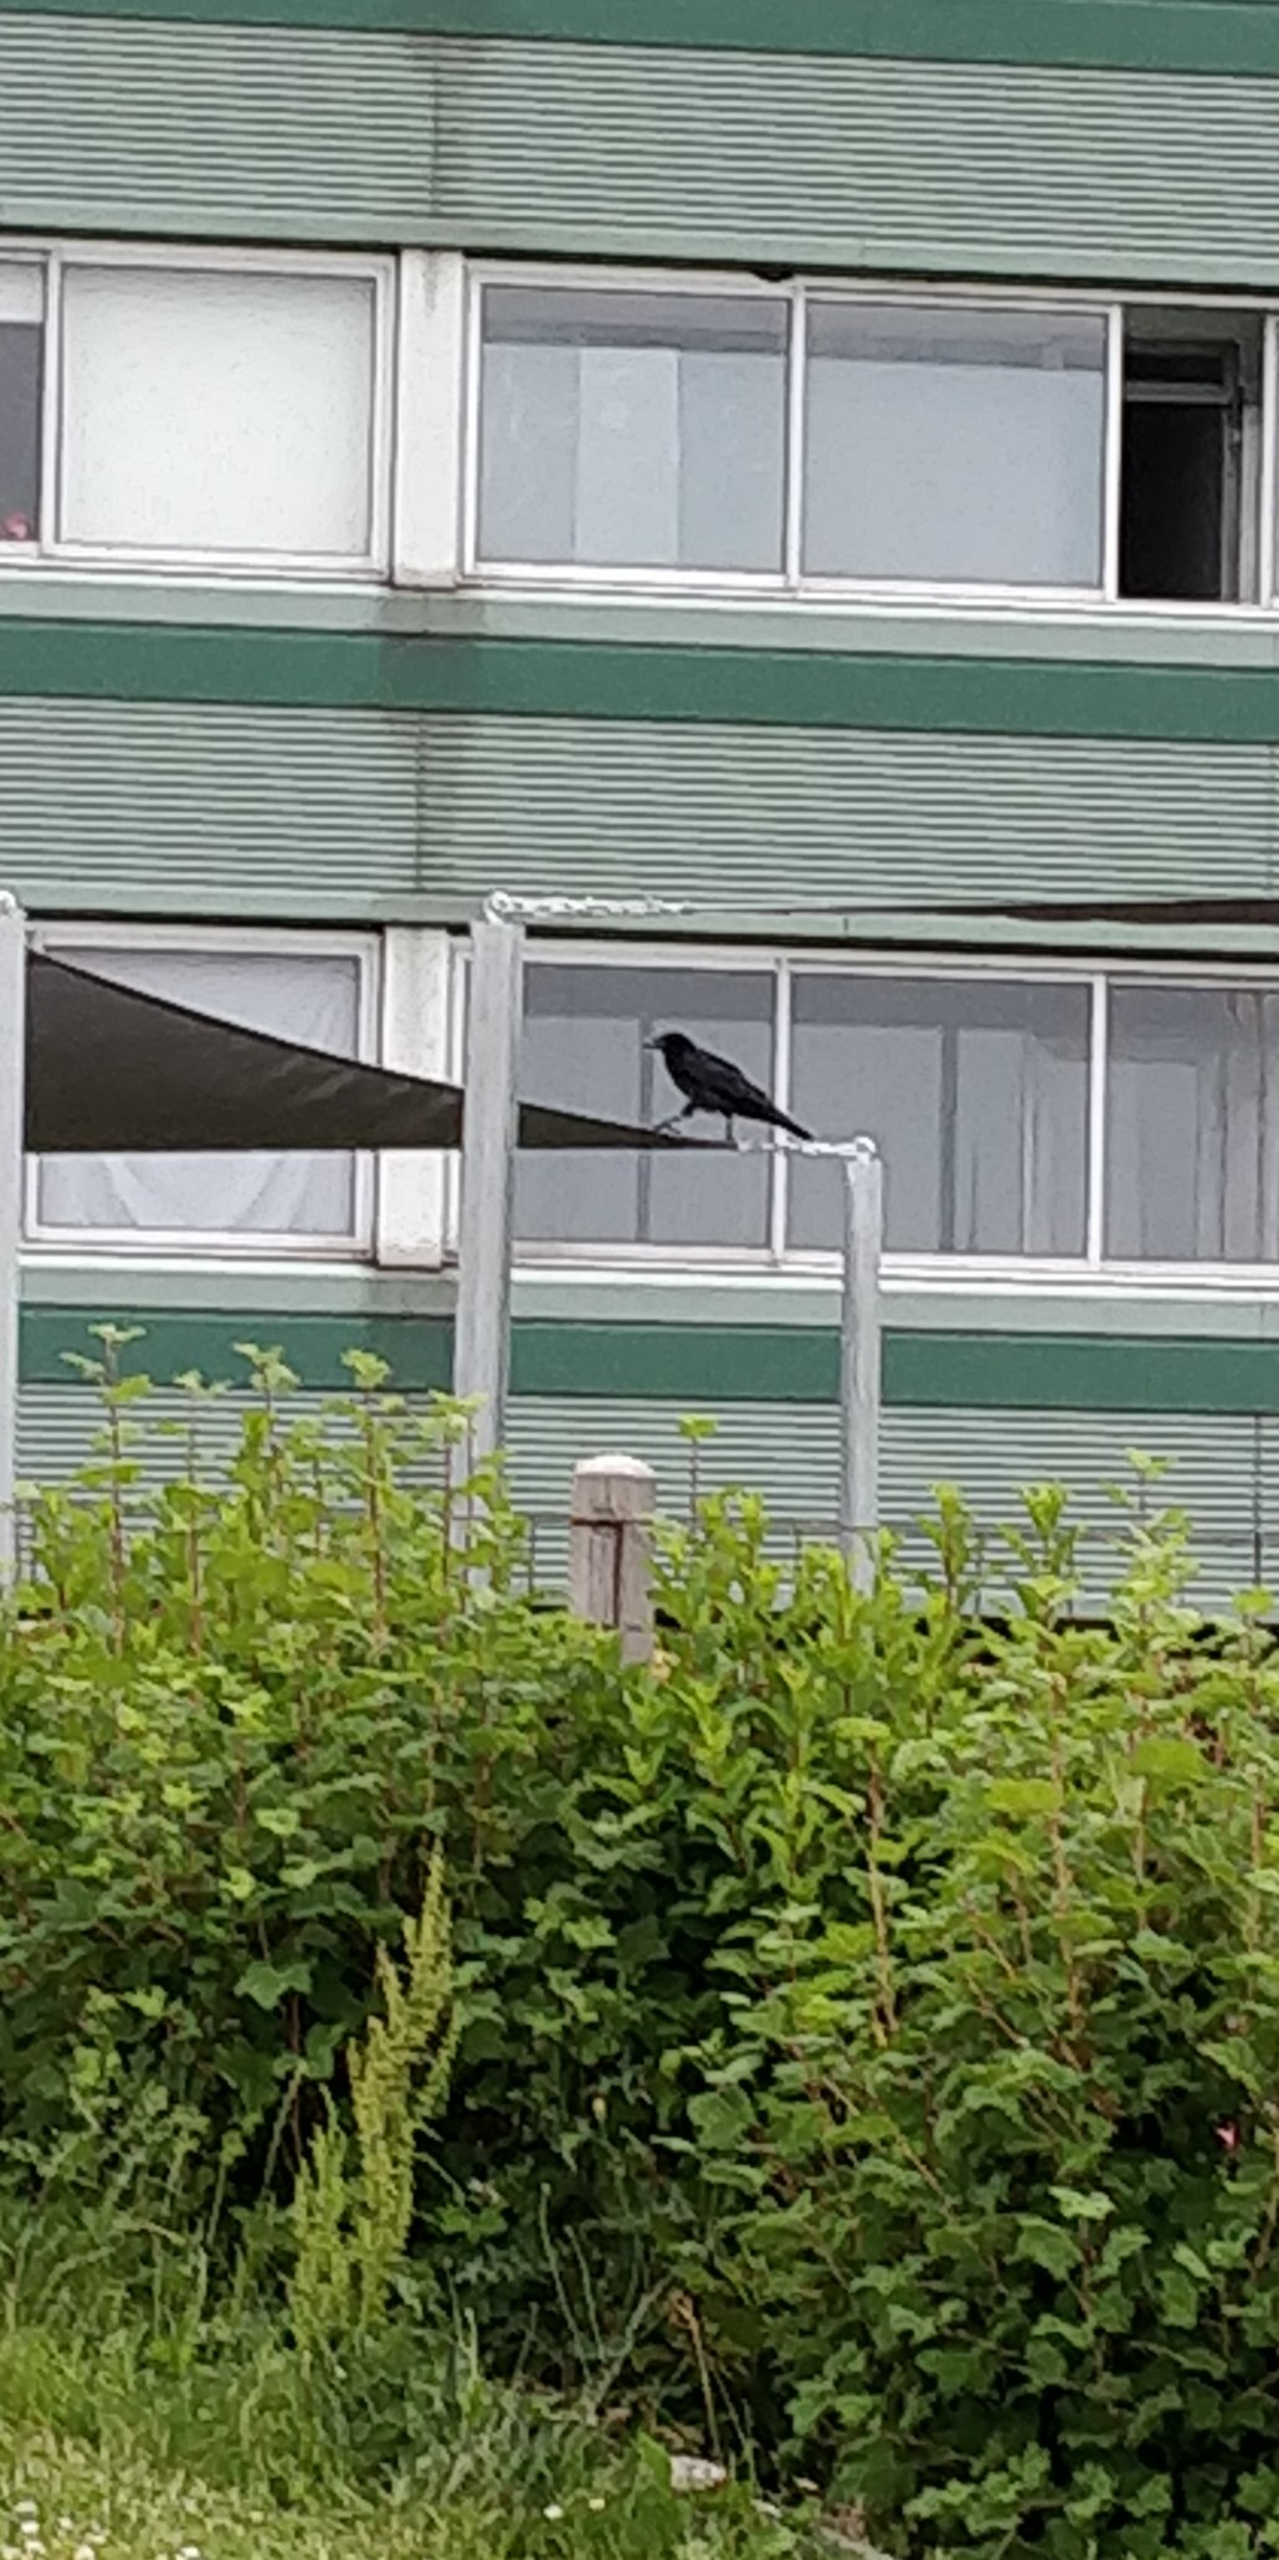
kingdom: Animalia
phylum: Chordata
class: Aves
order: Passeriformes
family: Corvidae
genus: Corvus
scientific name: Corvus corone
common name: Sortkrage
